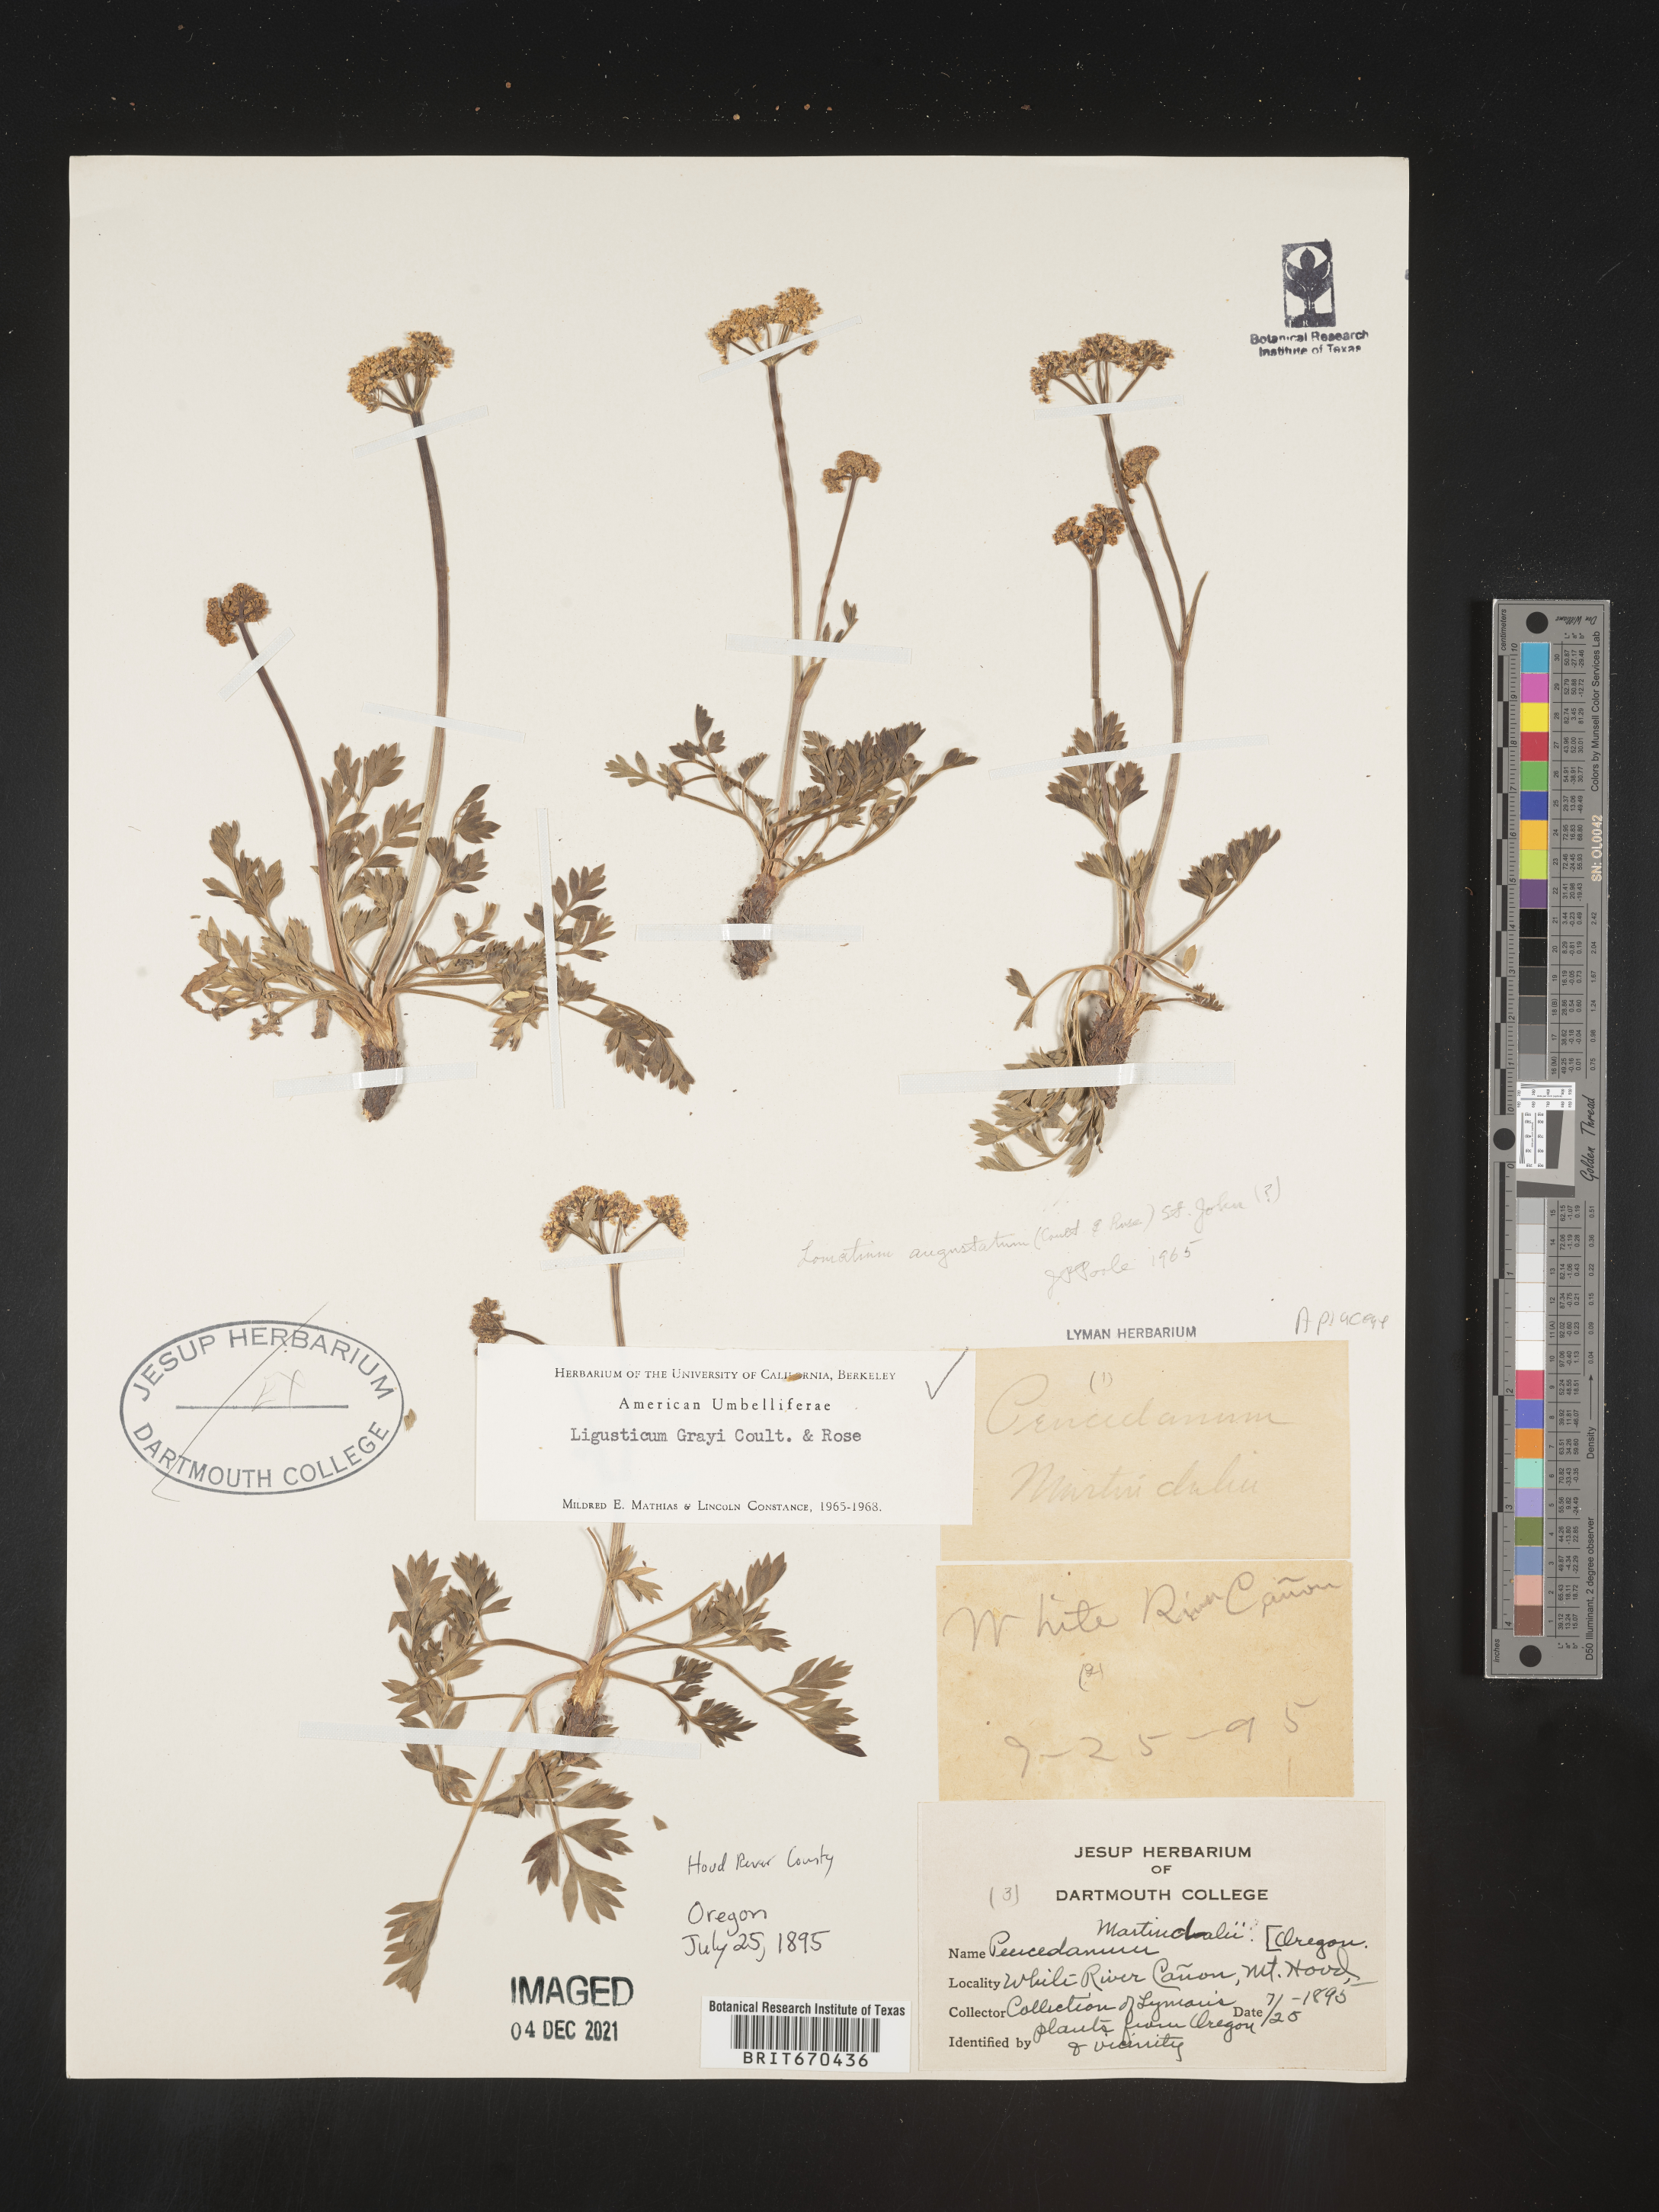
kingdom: Plantae
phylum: Tracheophyta
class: Magnoliopsida
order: Apiales
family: Apiaceae
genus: Ligusticum
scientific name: Ligusticum
